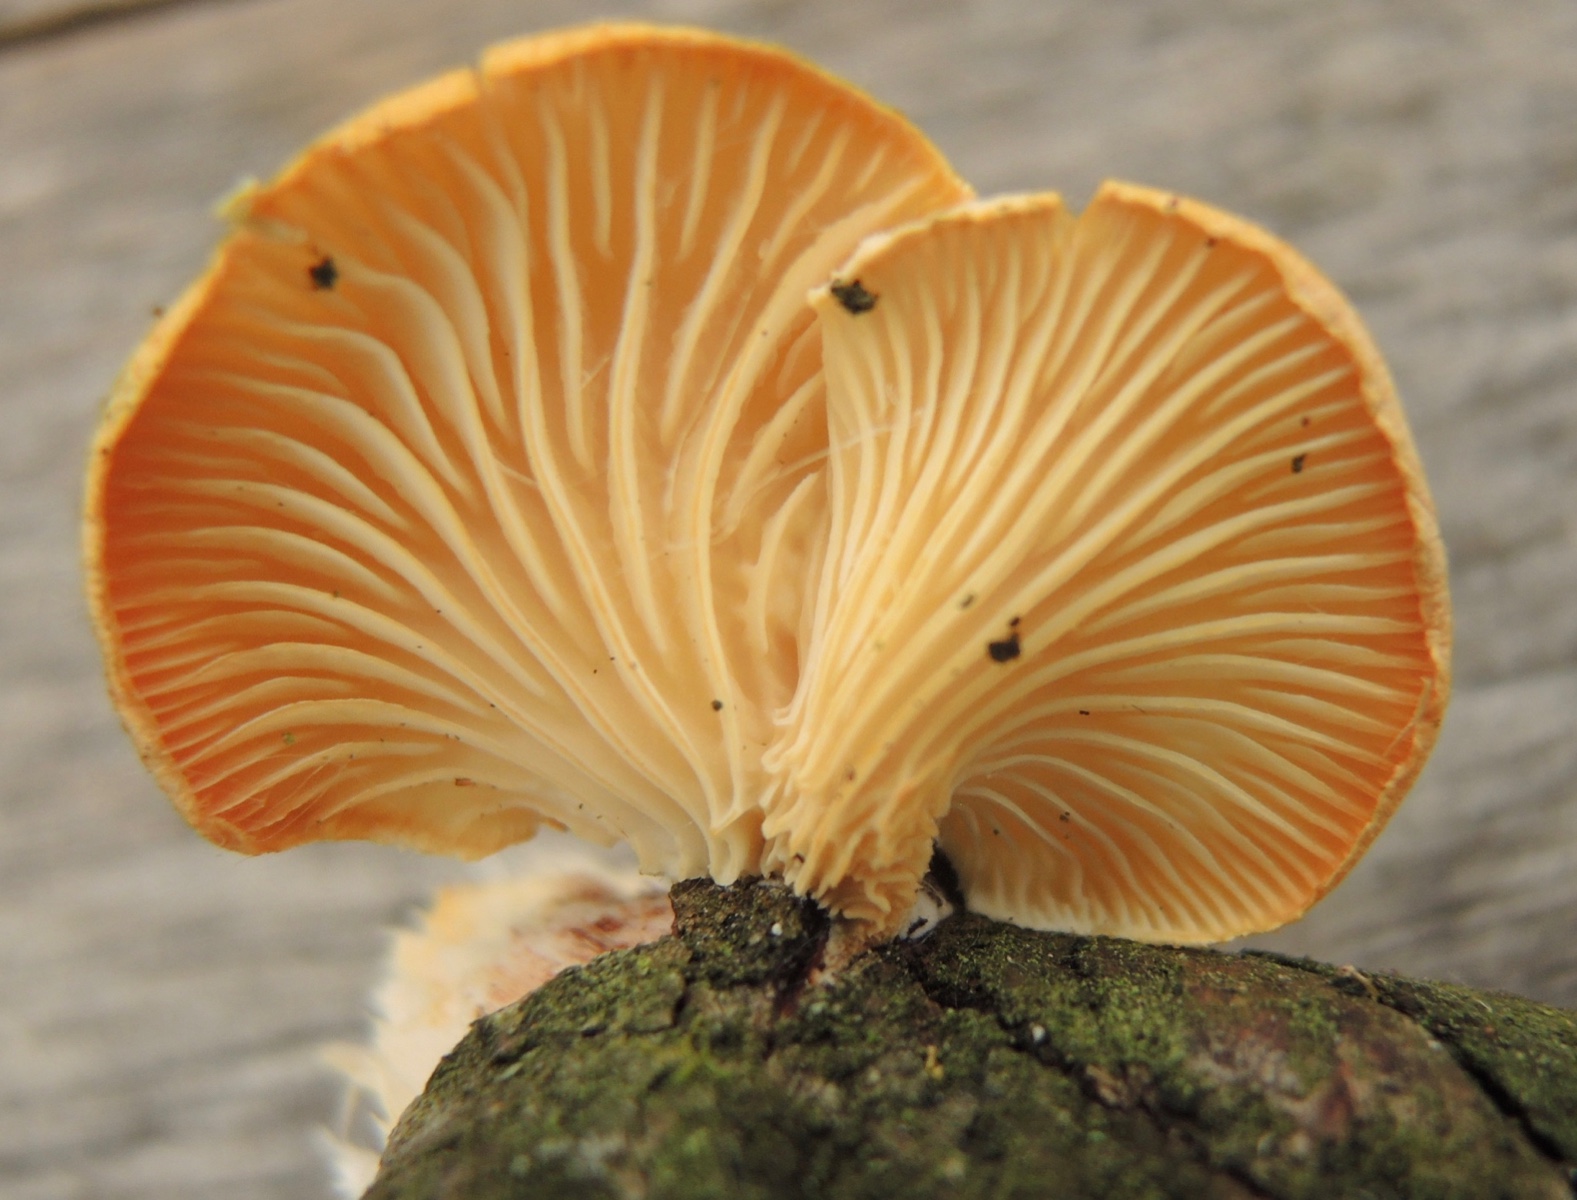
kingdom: Fungi
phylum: Basidiomycota
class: Agaricomycetes
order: Polyporales
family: Polyporaceae
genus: Neofavolus
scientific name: Neofavolus suavissimus
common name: anishat
